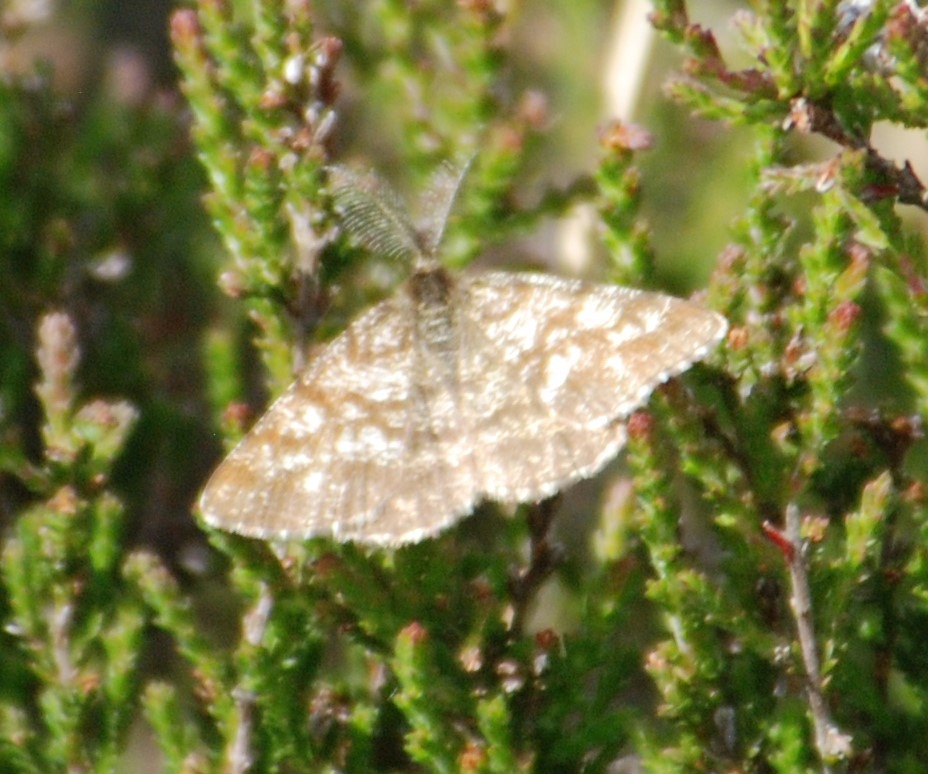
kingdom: Animalia
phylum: Arthropoda
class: Insecta
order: Lepidoptera
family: Geometridae
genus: Ematurga
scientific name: Ematurga atomaria
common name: Lyngmåler
